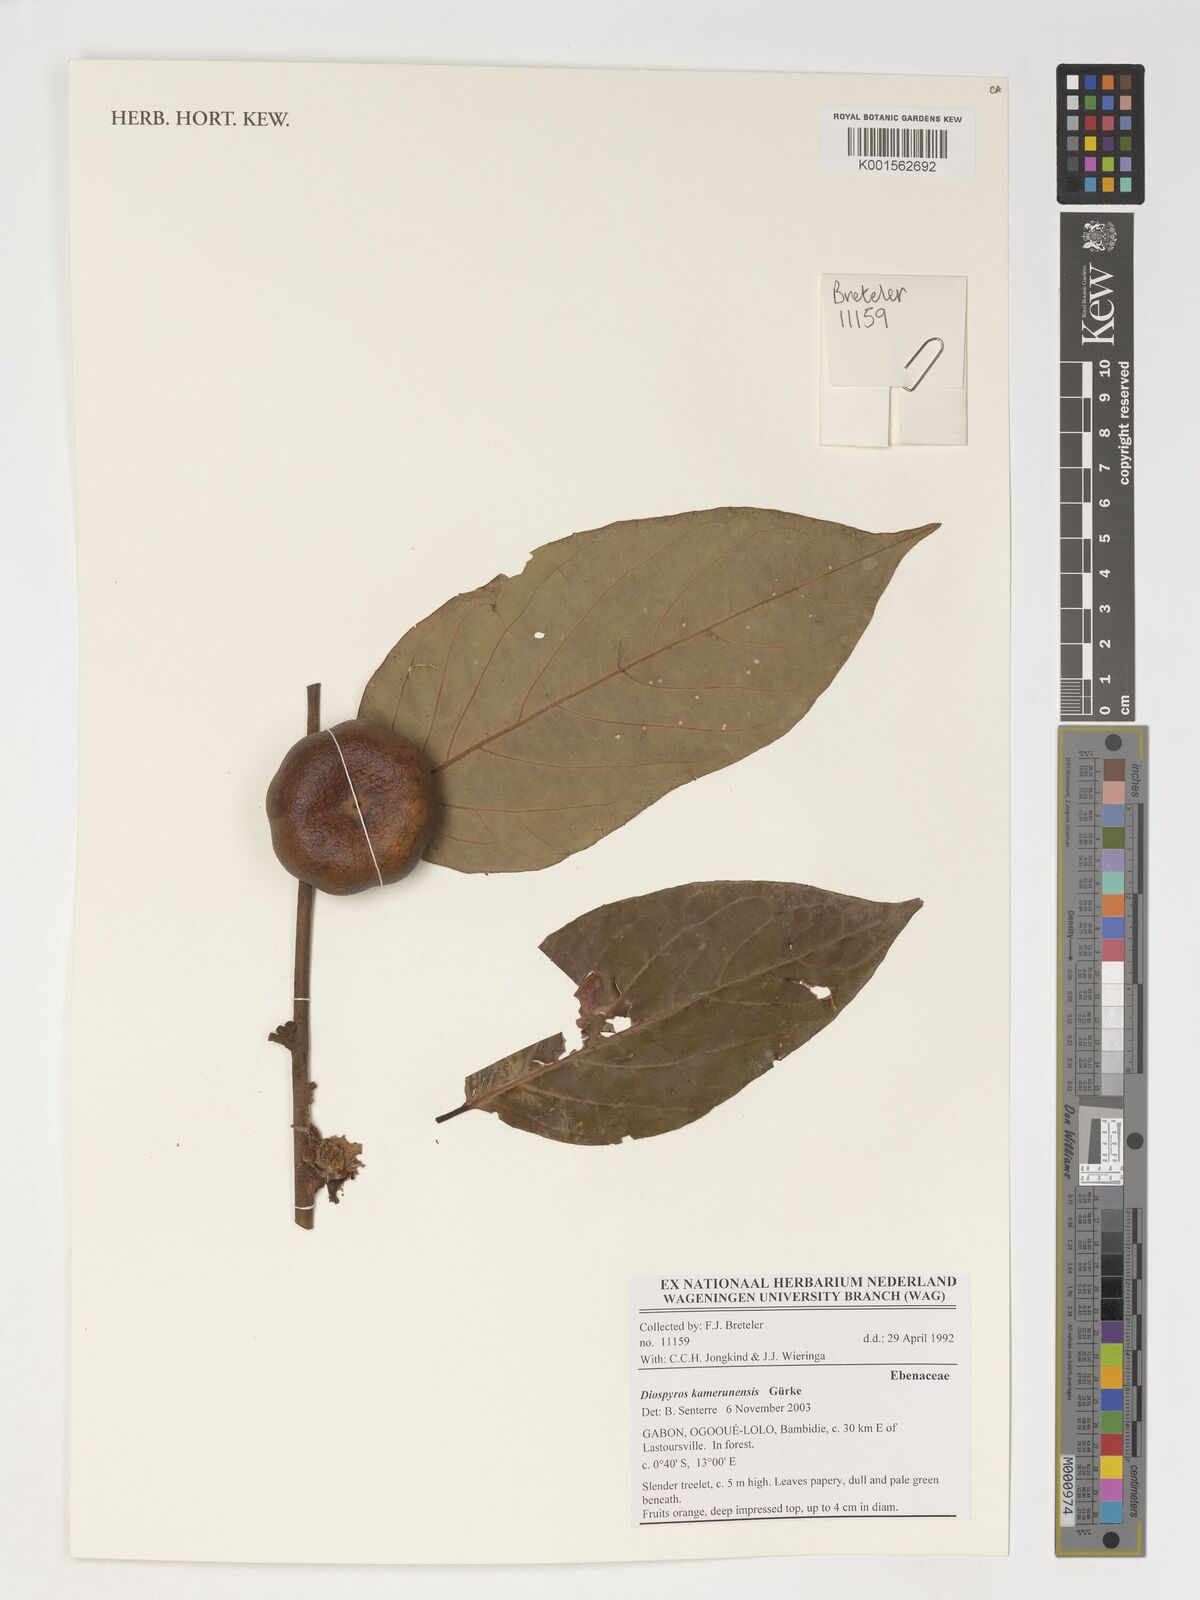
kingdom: Plantae
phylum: Tracheophyta
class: Magnoliopsida
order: Ericales
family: Ebenaceae
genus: Diospyros
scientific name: Diospyros kamerunensis
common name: African ebony
